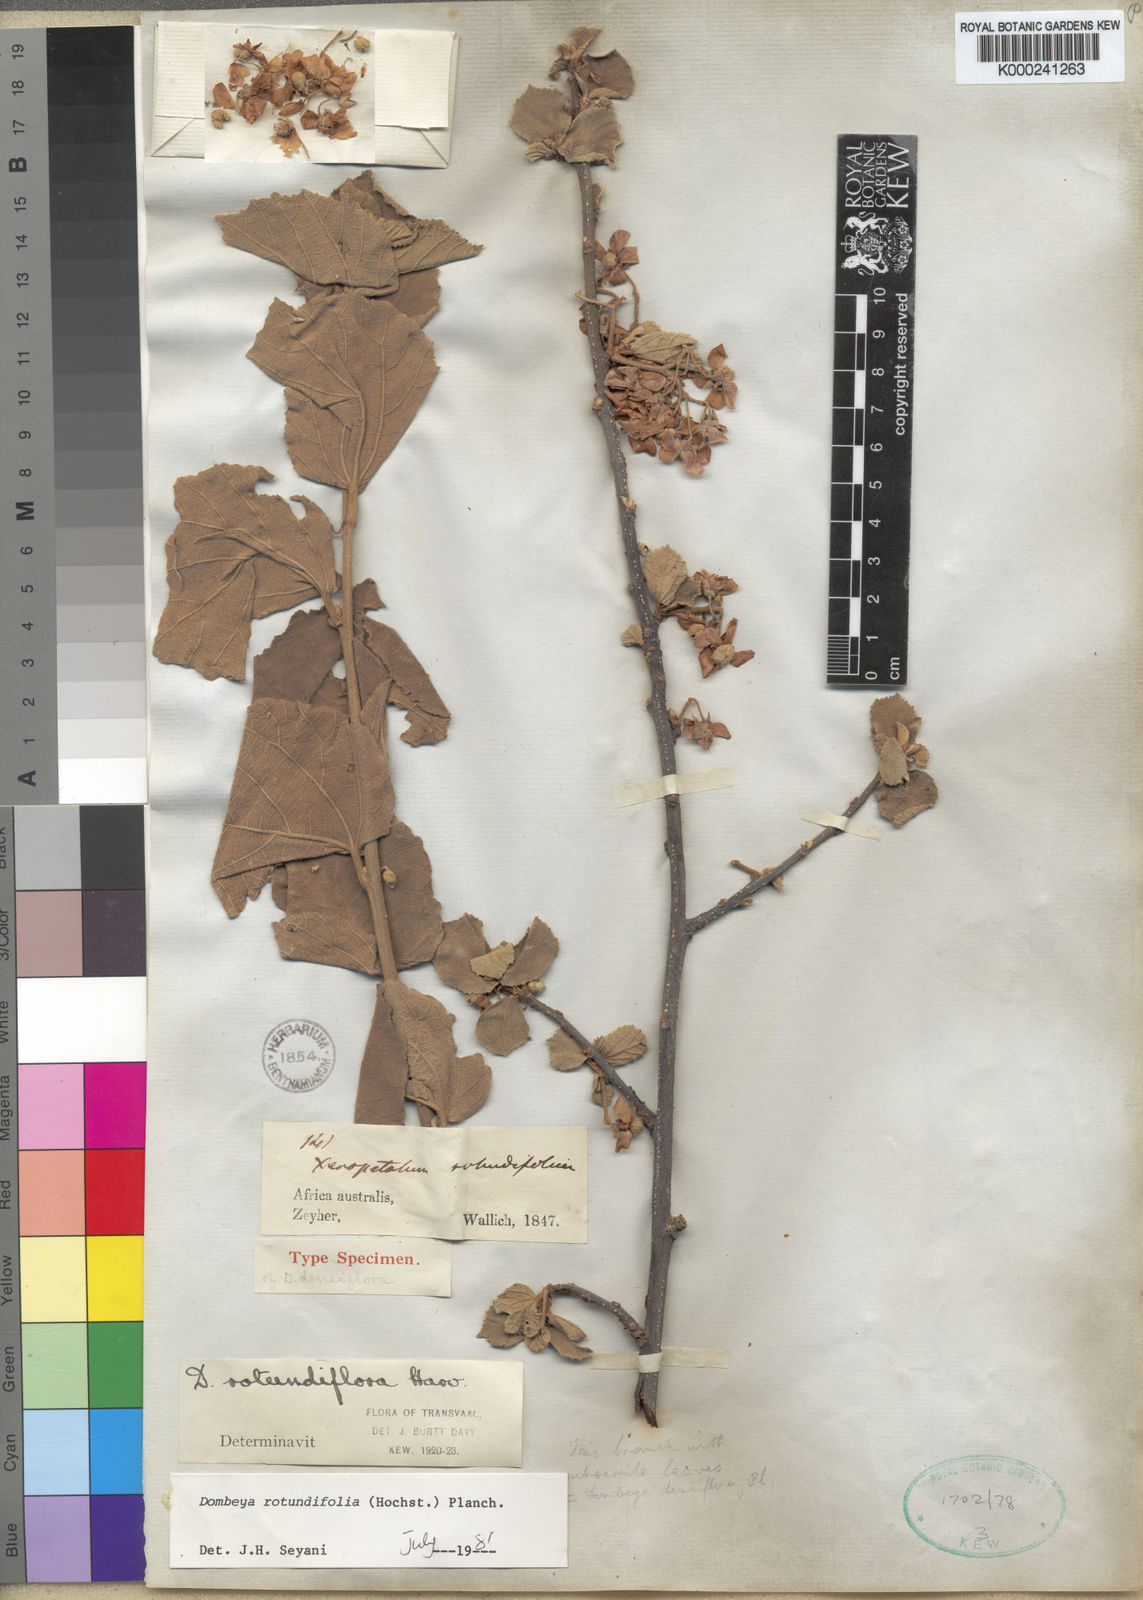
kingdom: Plantae
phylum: Tracheophyta
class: Magnoliopsida
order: Malvales
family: Malvaceae
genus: Dombeya
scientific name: Dombeya rotundifolia
